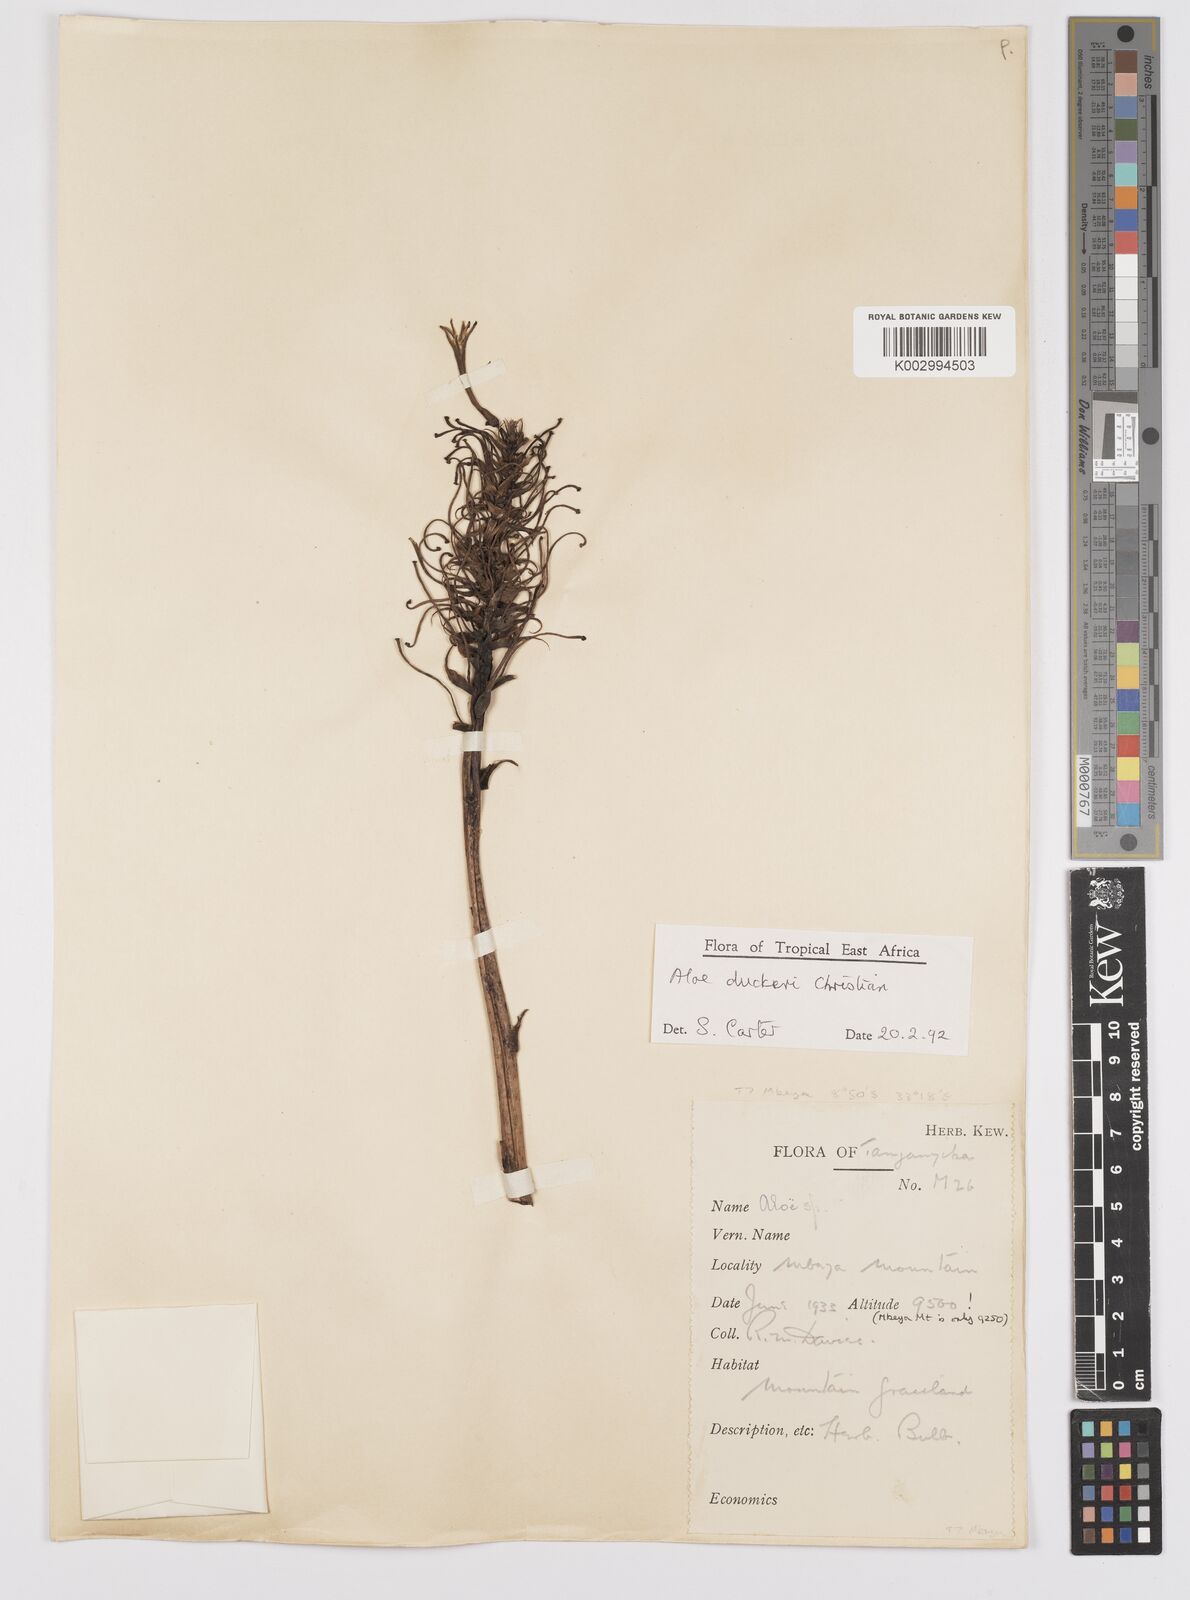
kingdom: Plantae
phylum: Tracheophyta
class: Liliopsida
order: Asparagales
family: Asphodelaceae
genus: Aloe
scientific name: Aloe duckeri
